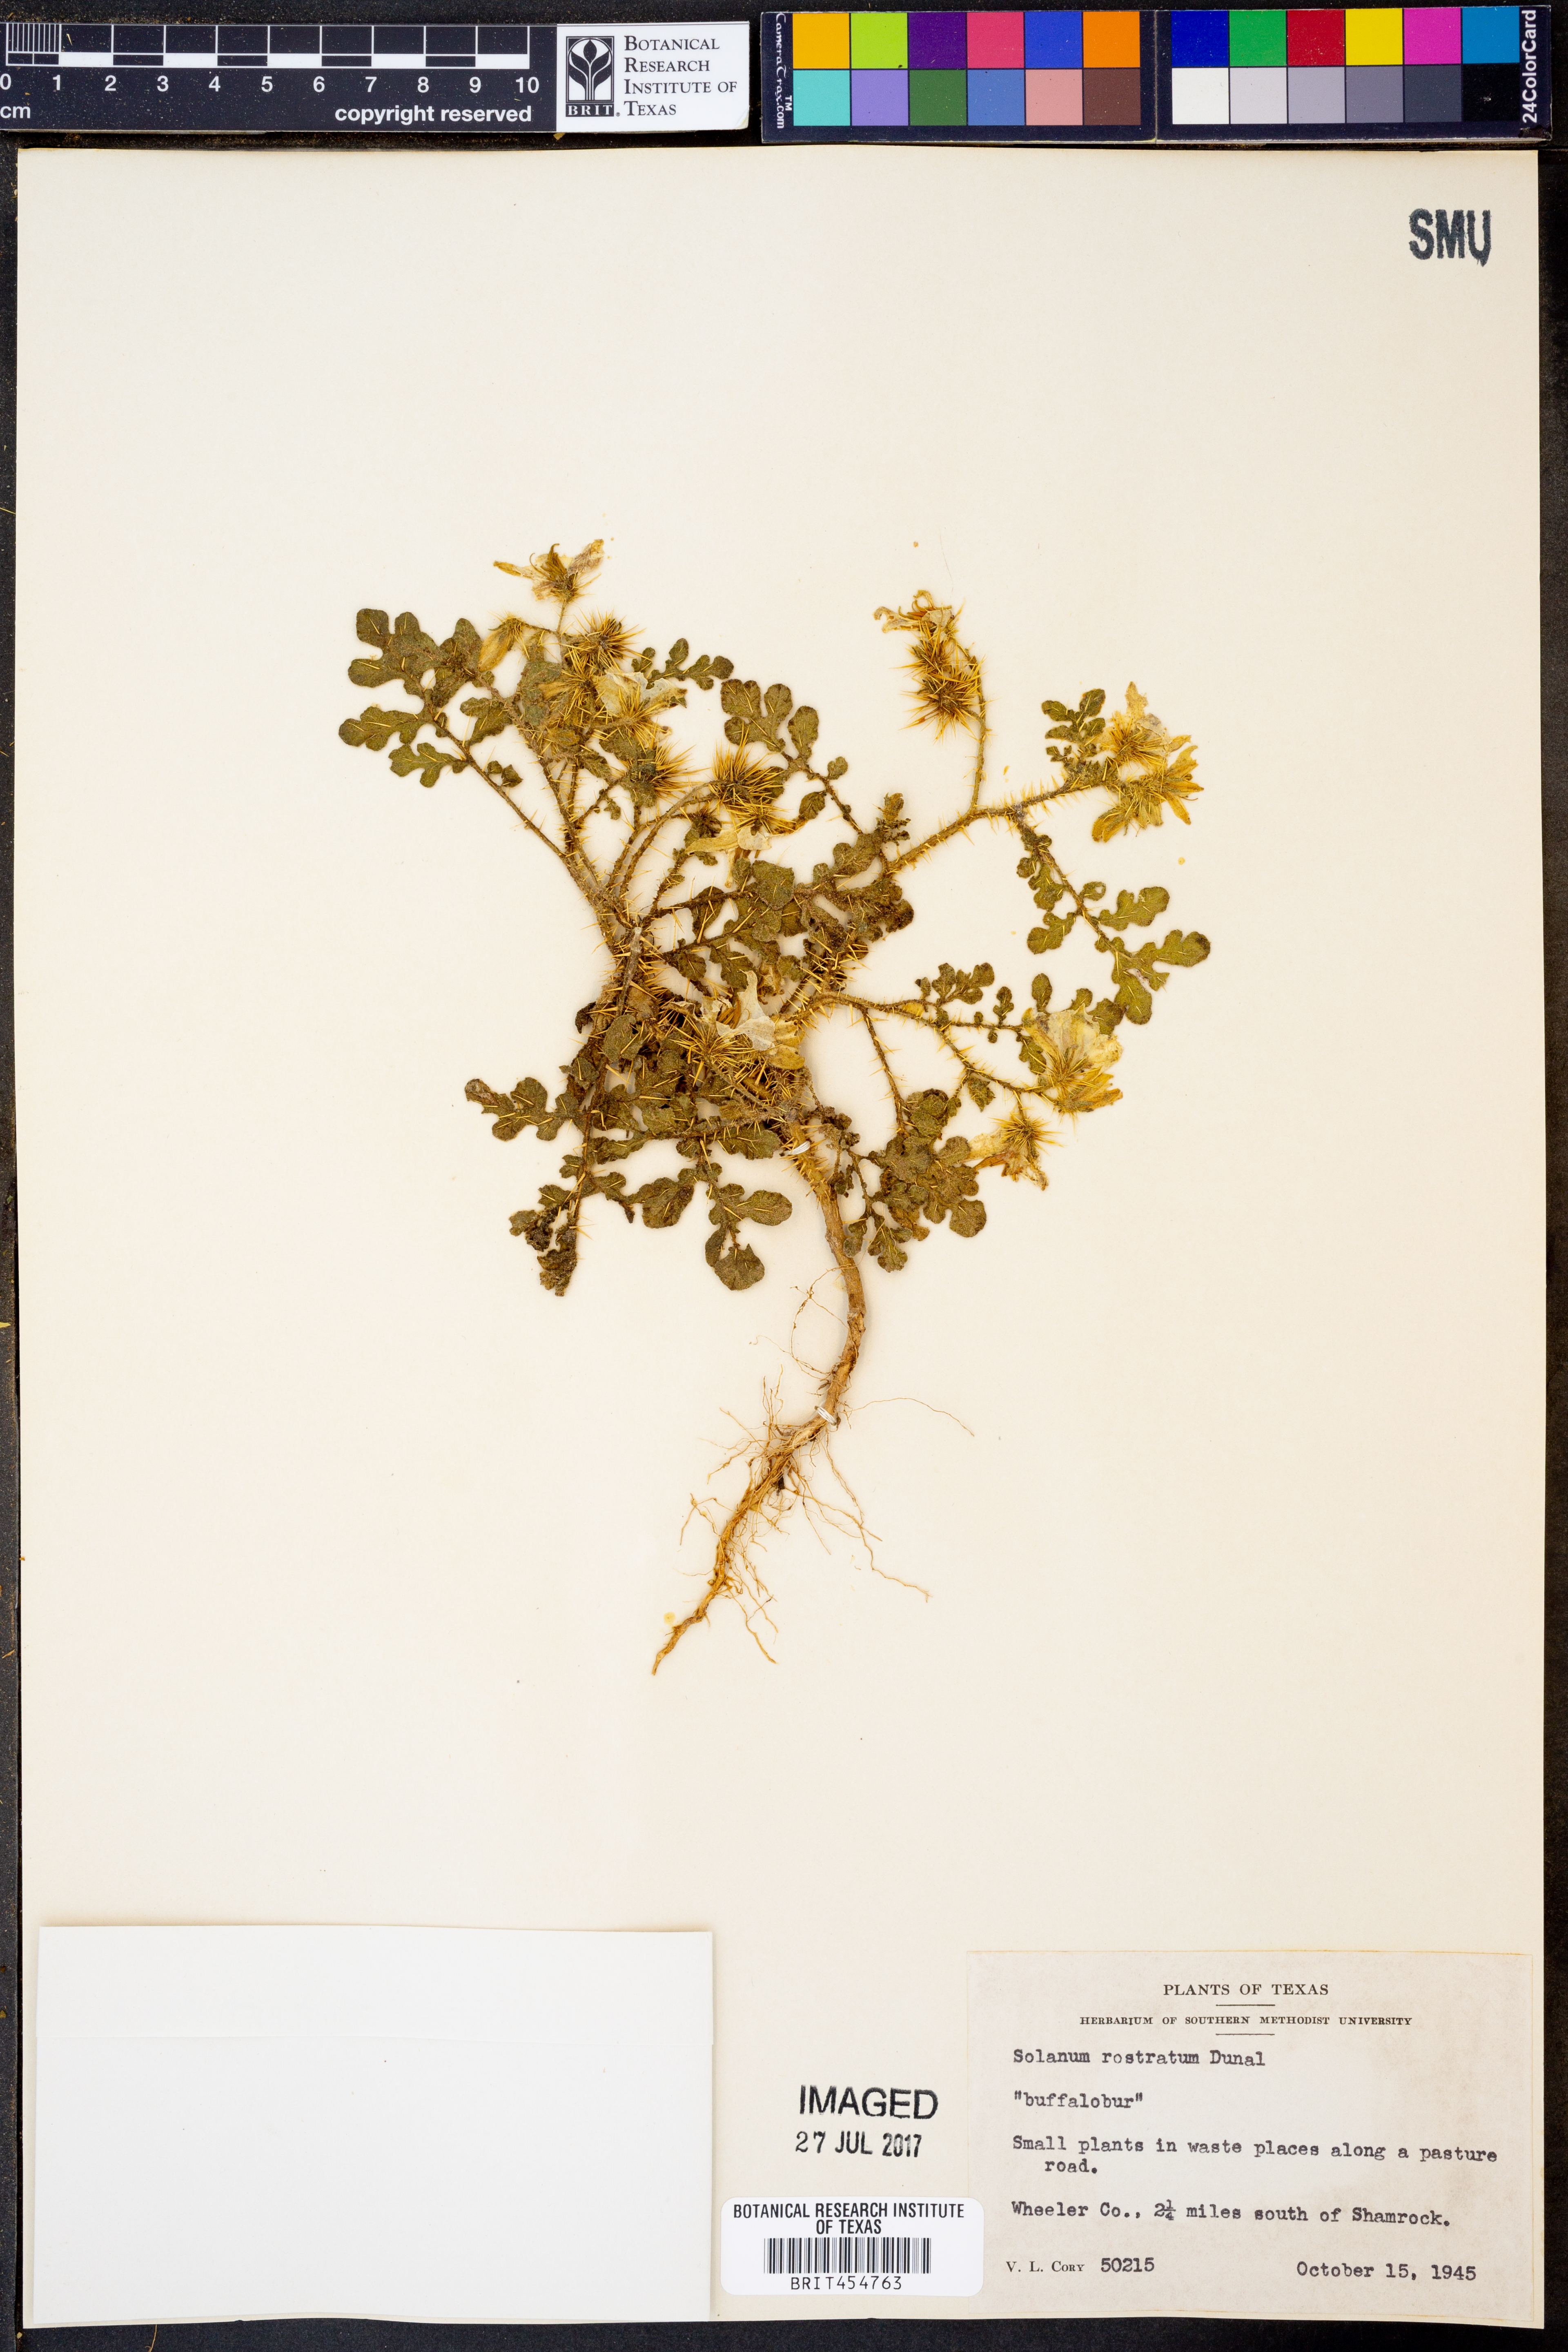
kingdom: Plantae
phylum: Tracheophyta
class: Magnoliopsida
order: Solanales
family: Solanaceae
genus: Solanum
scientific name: Solanum angustifolium
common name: Buffalobur nightshade
